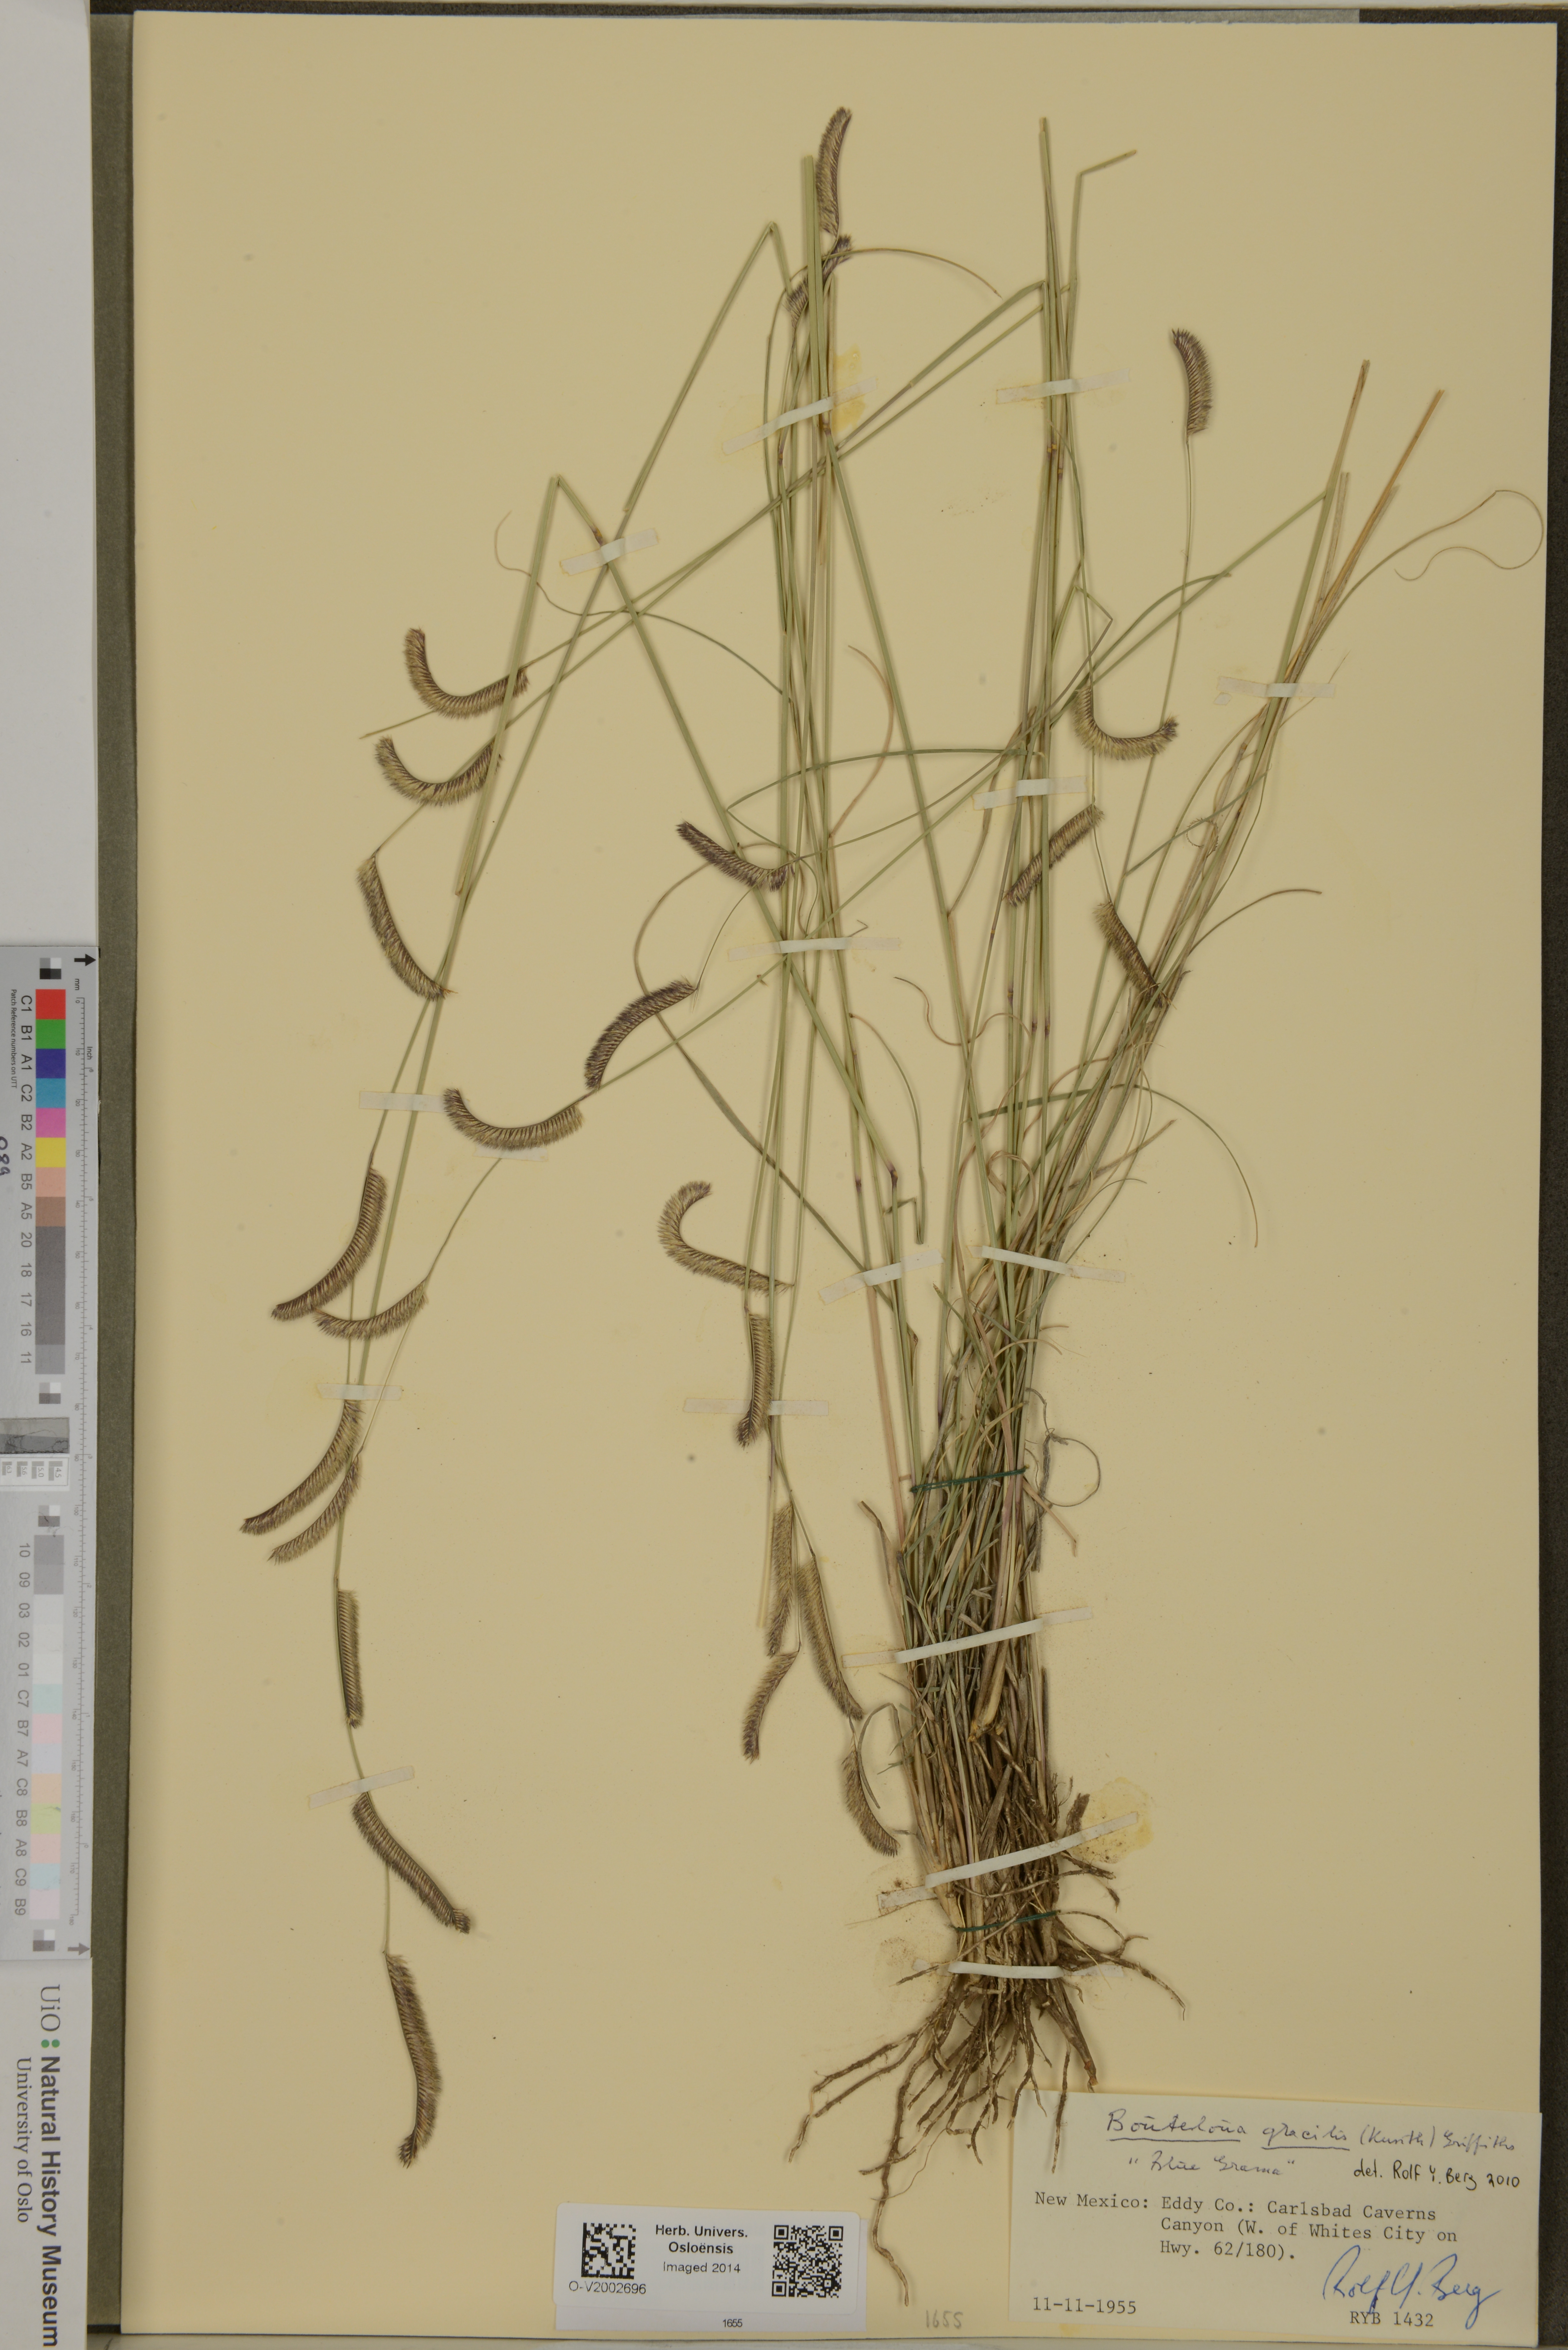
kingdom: Plantae
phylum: Tracheophyta
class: Liliopsida
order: Poales
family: Poaceae
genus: Bouteloua
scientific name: Bouteloua gracilis
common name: Blue grama
